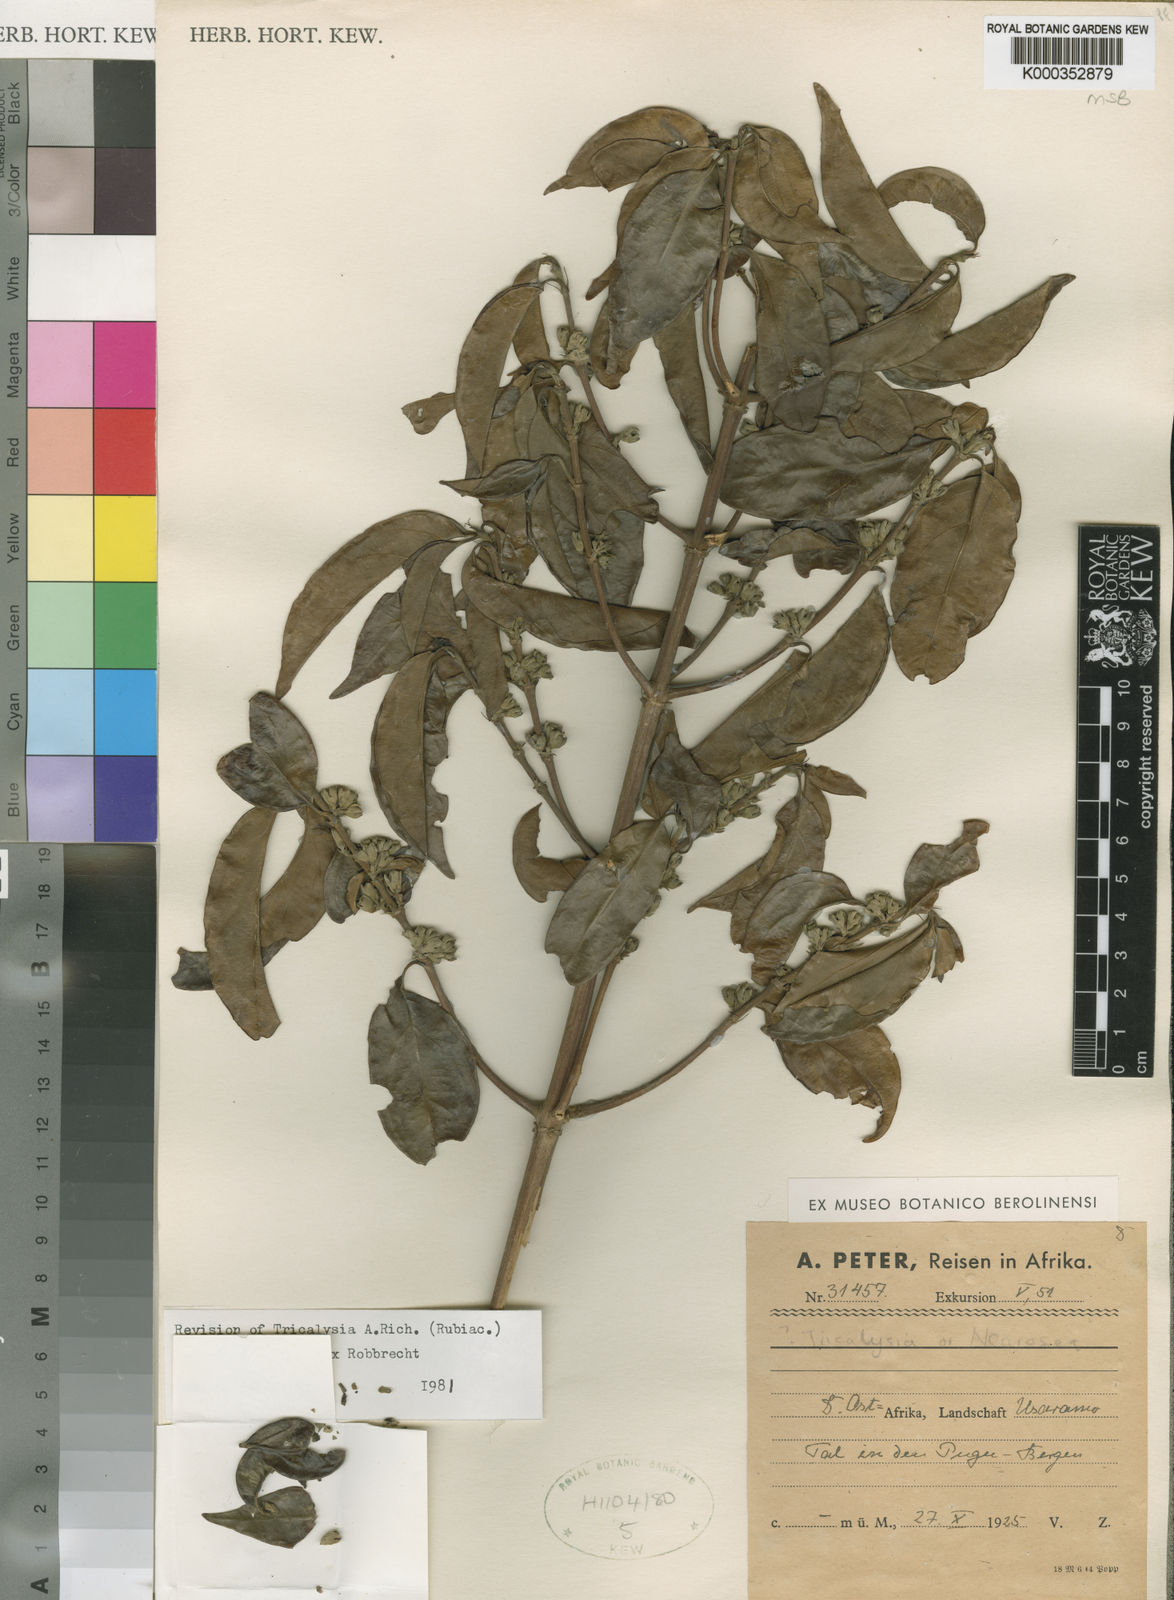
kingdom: Plantae
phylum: Tracheophyta
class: Magnoliopsida
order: Gentianales
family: Rubiaceae
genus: Tricalysia
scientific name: Tricalysia allocalyx
